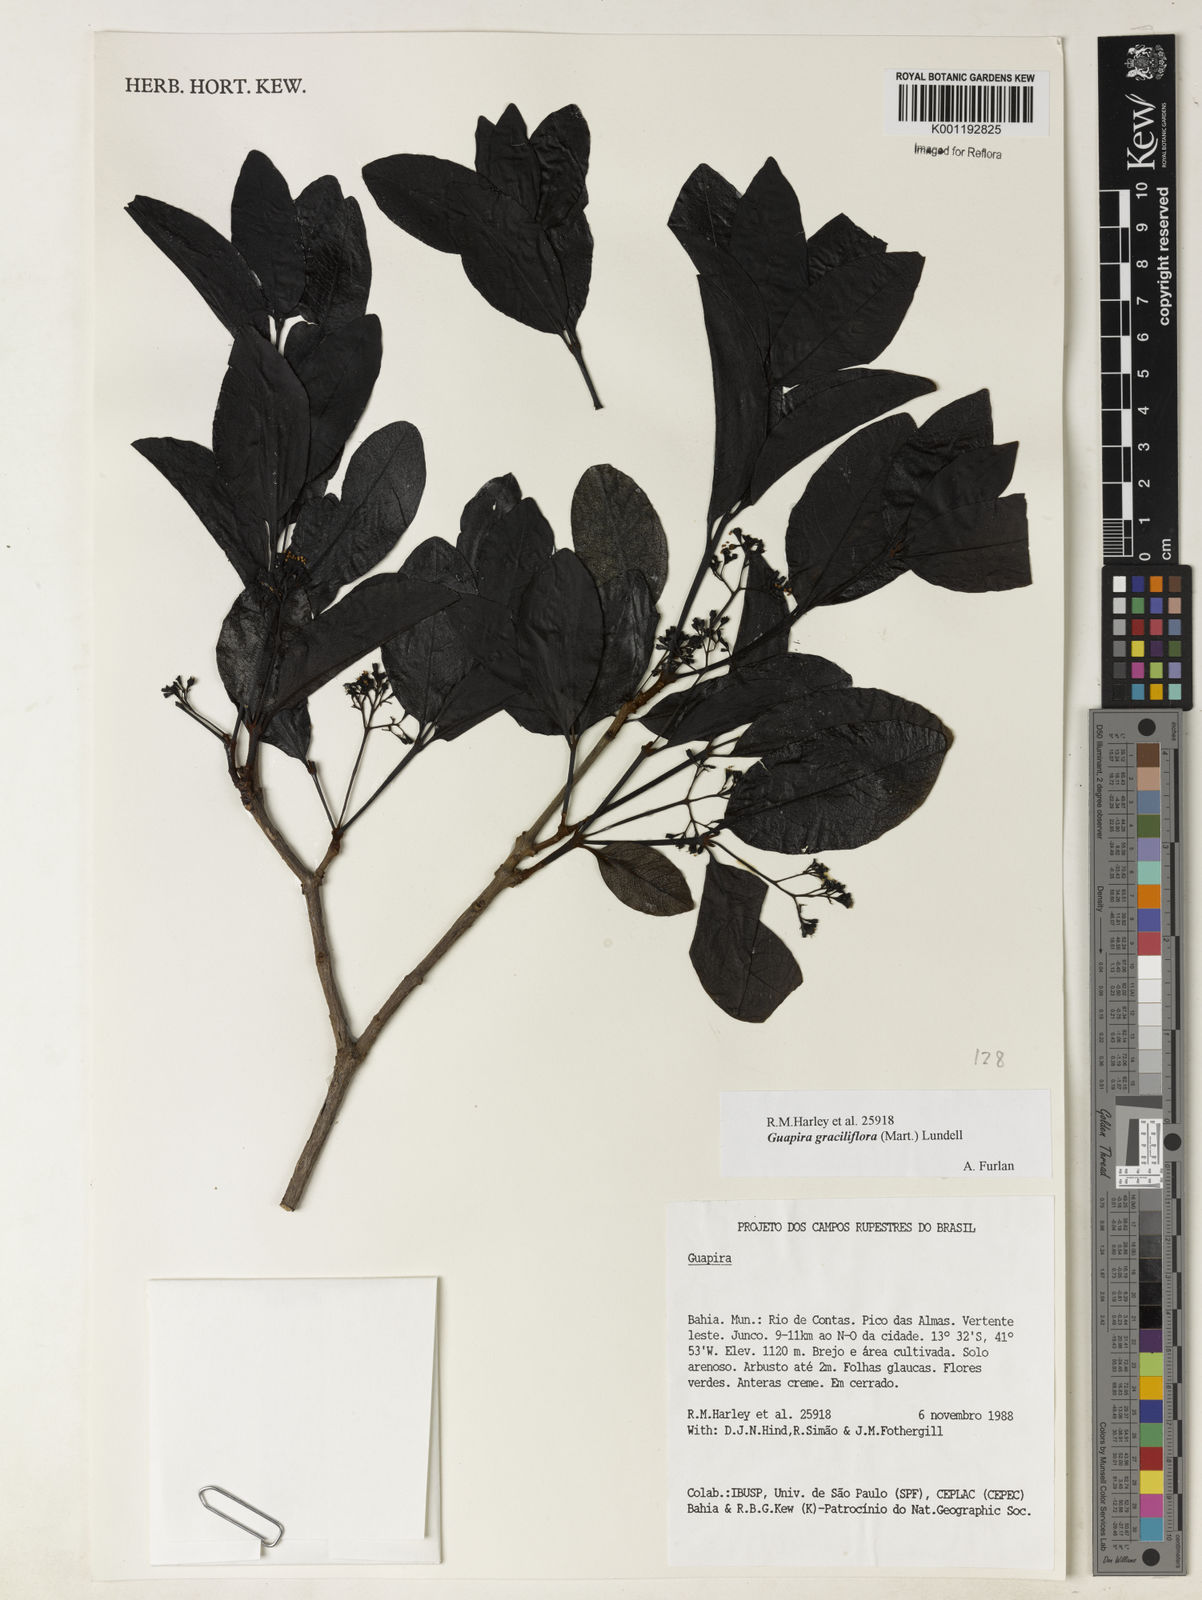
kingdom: Plantae
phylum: Tracheophyta
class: Magnoliopsida
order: Caryophyllales
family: Nyctaginaceae
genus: Guapira
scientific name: Guapira graciliflora
